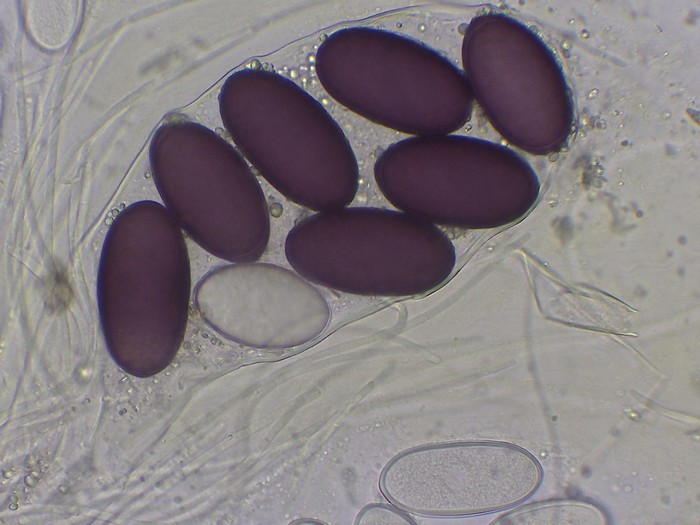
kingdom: Fungi
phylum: Ascomycota
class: Pezizomycetes
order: Pezizales
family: Ascobolaceae
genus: Ascobolus
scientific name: Ascobolus immersus
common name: storsporet prikbæger
